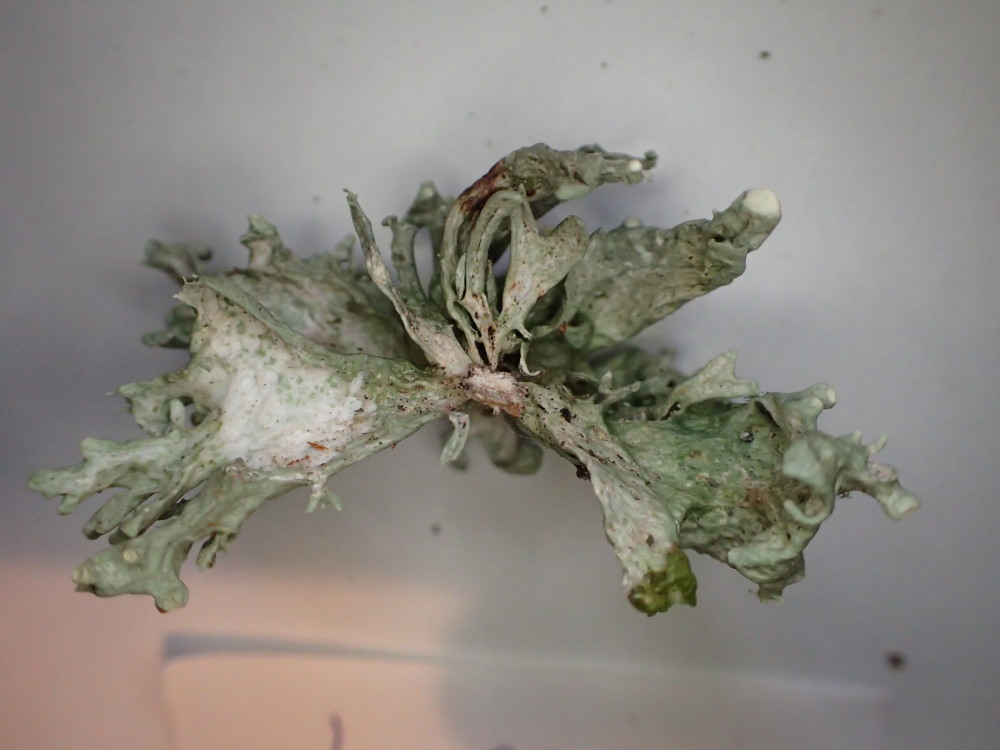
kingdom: Fungi
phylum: Ascomycota
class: Lecanoromycetes
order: Lecanorales
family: Ramalinaceae
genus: Ramalina
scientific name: Ramalina fastigiata
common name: tue-grenlav
